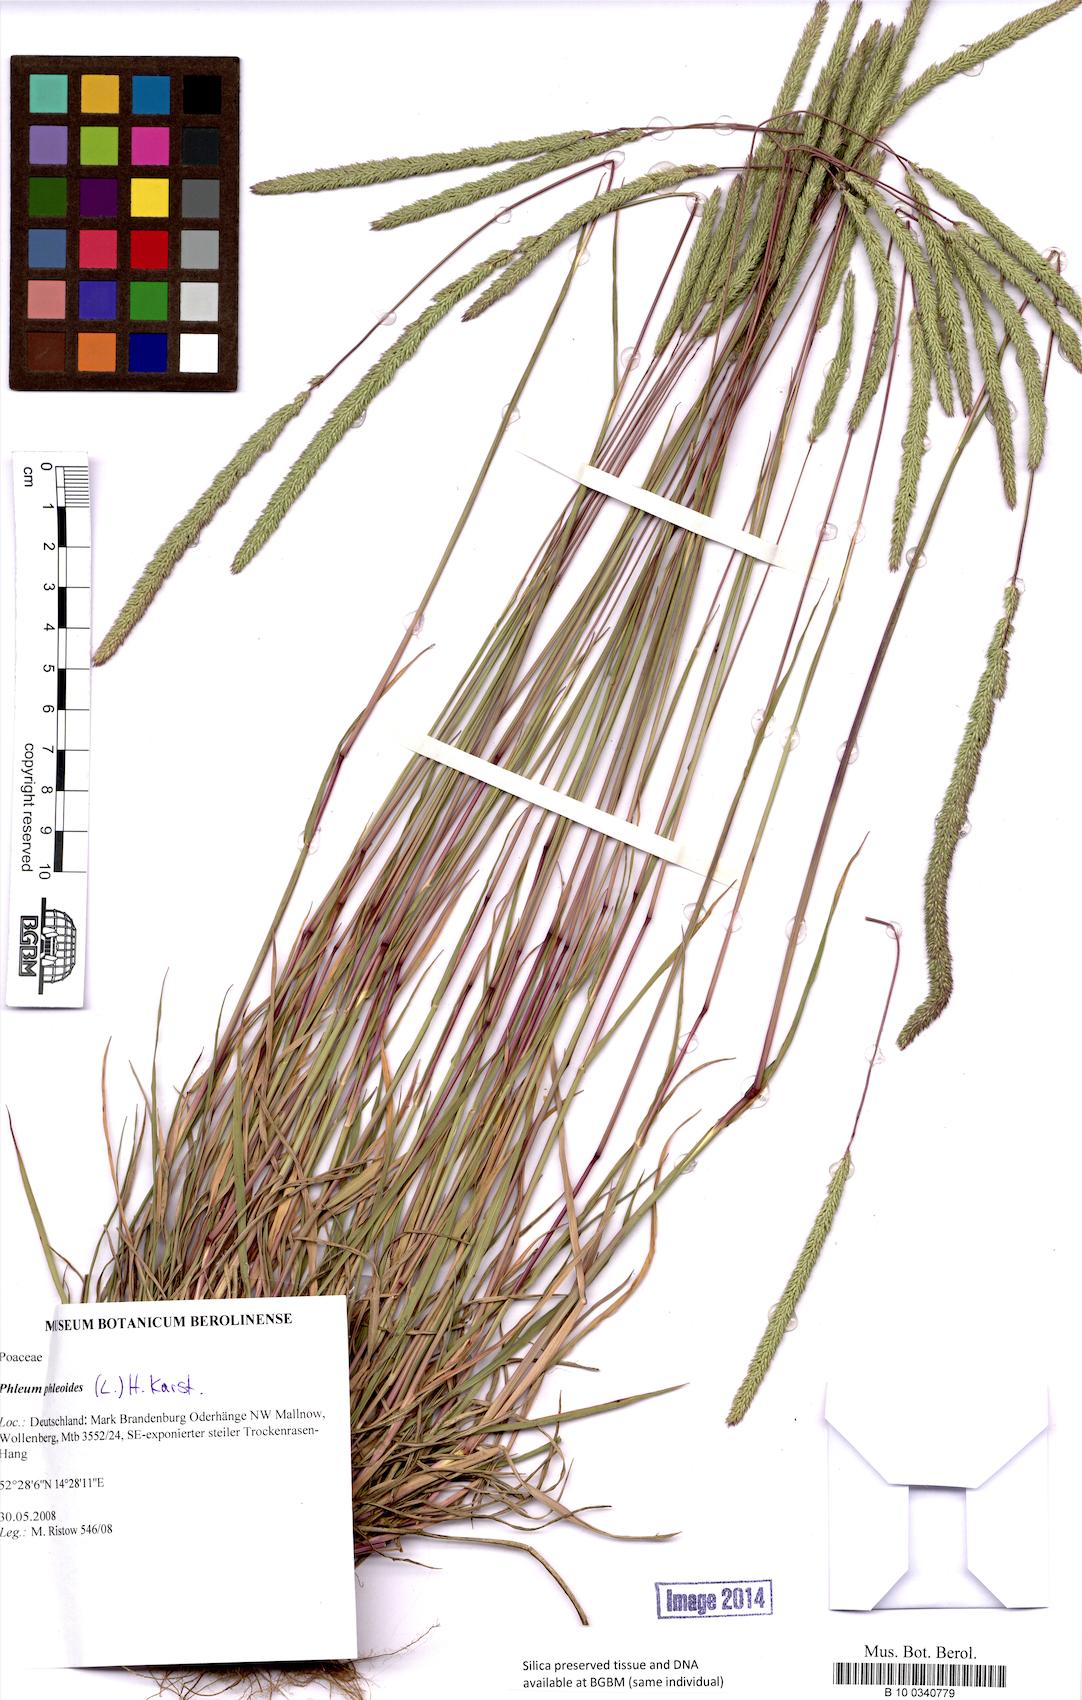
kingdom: Plantae
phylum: Tracheophyta
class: Liliopsida
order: Poales
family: Poaceae
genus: Phleum
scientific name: Phleum phleoides
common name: Purple-stem cat's-tail
